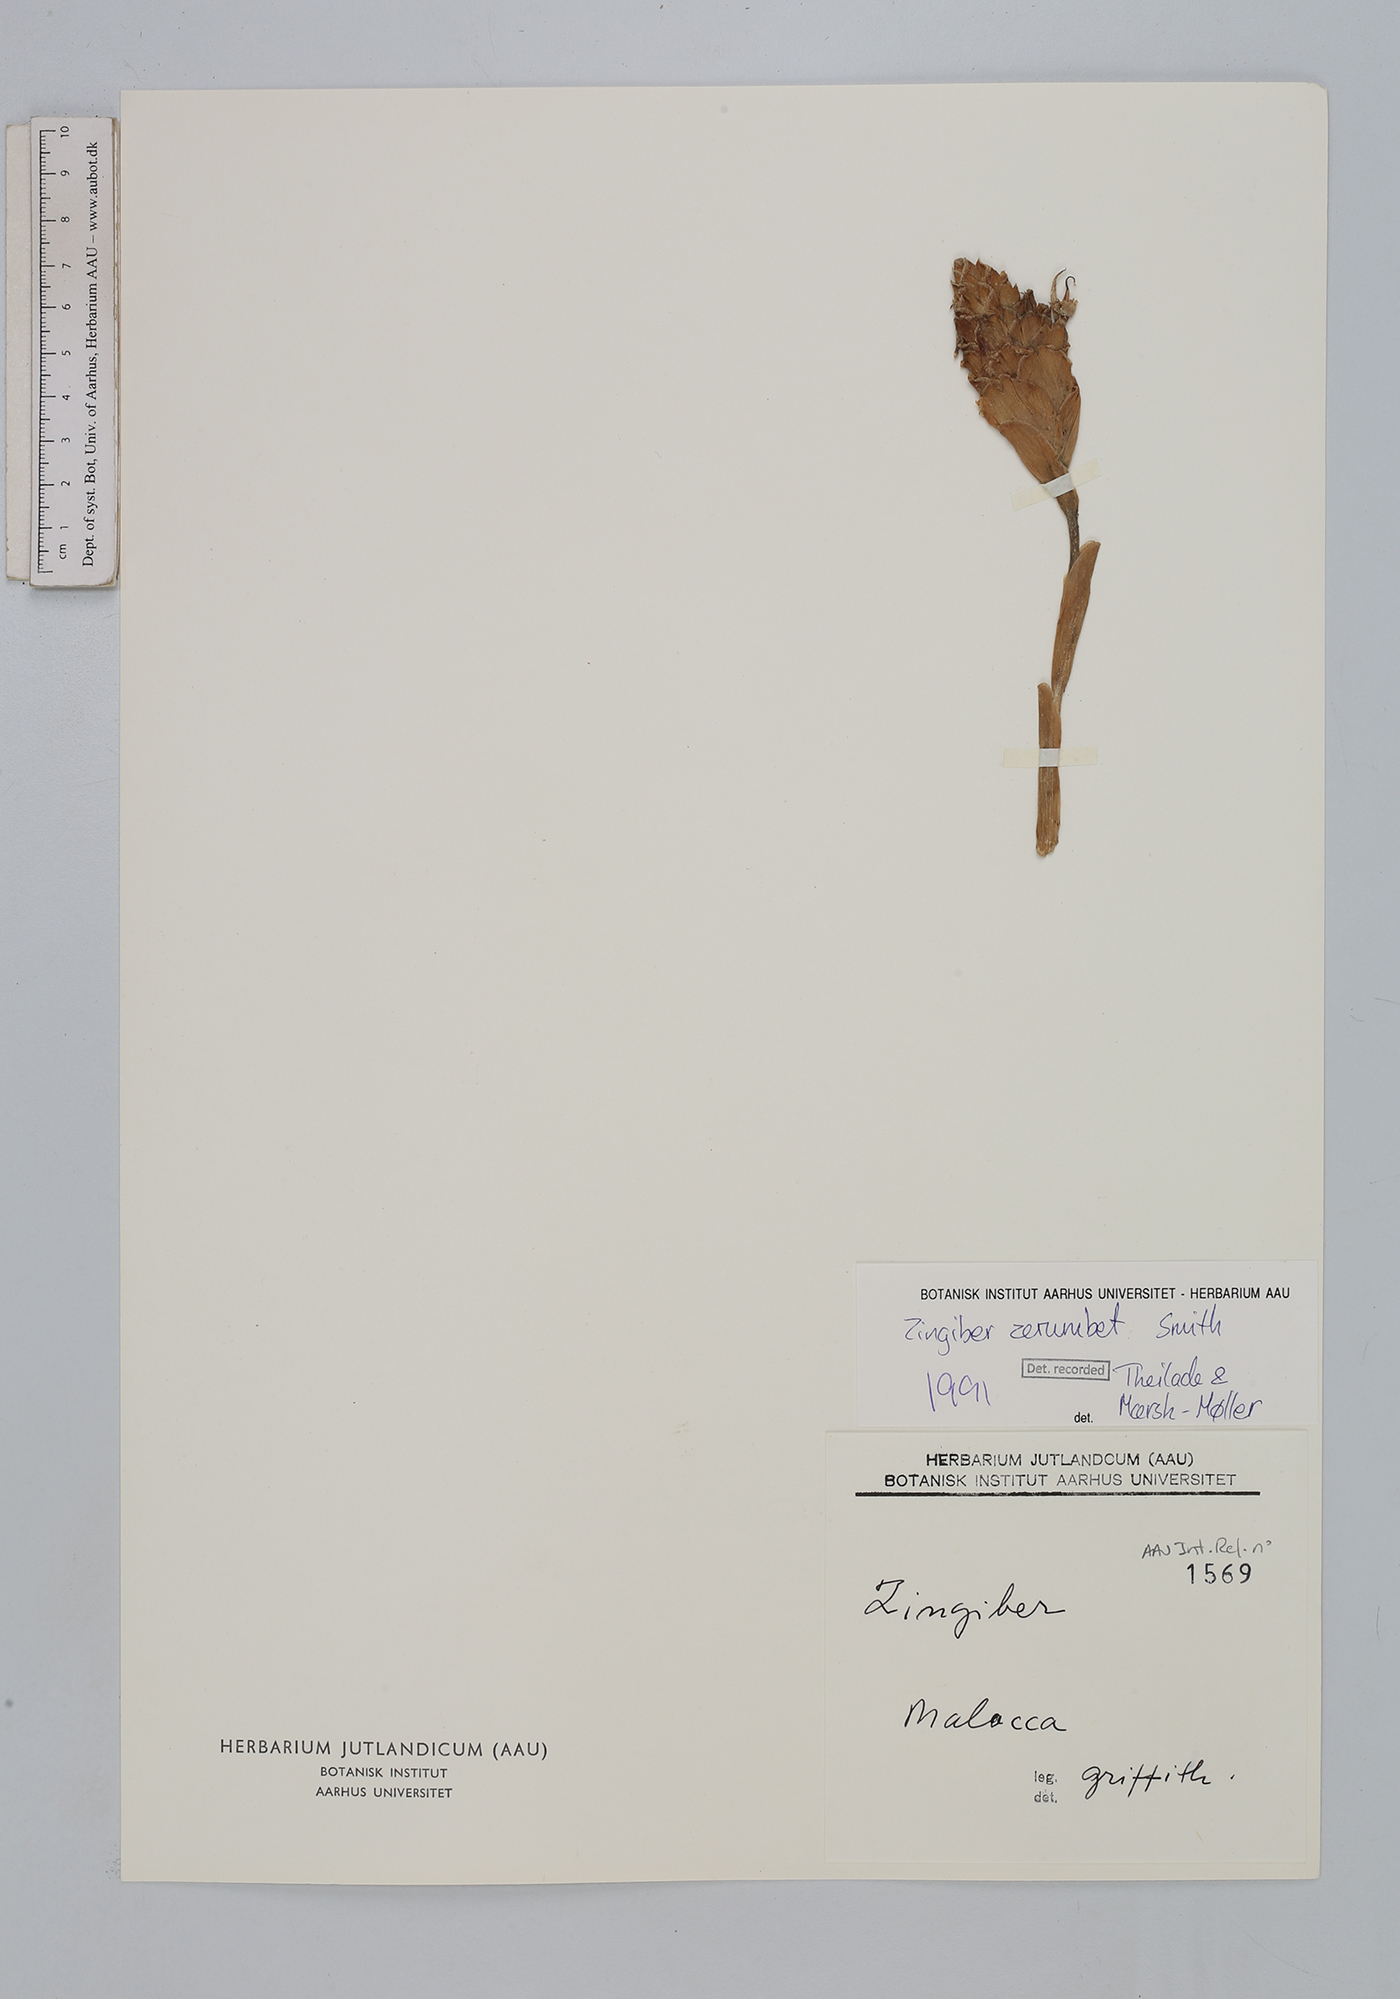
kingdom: Plantae
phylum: Tracheophyta
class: Liliopsida
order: Zingiberales
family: Zingiberaceae
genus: Zingiber
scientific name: Zingiber zerumbet
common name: Bitter ginger
